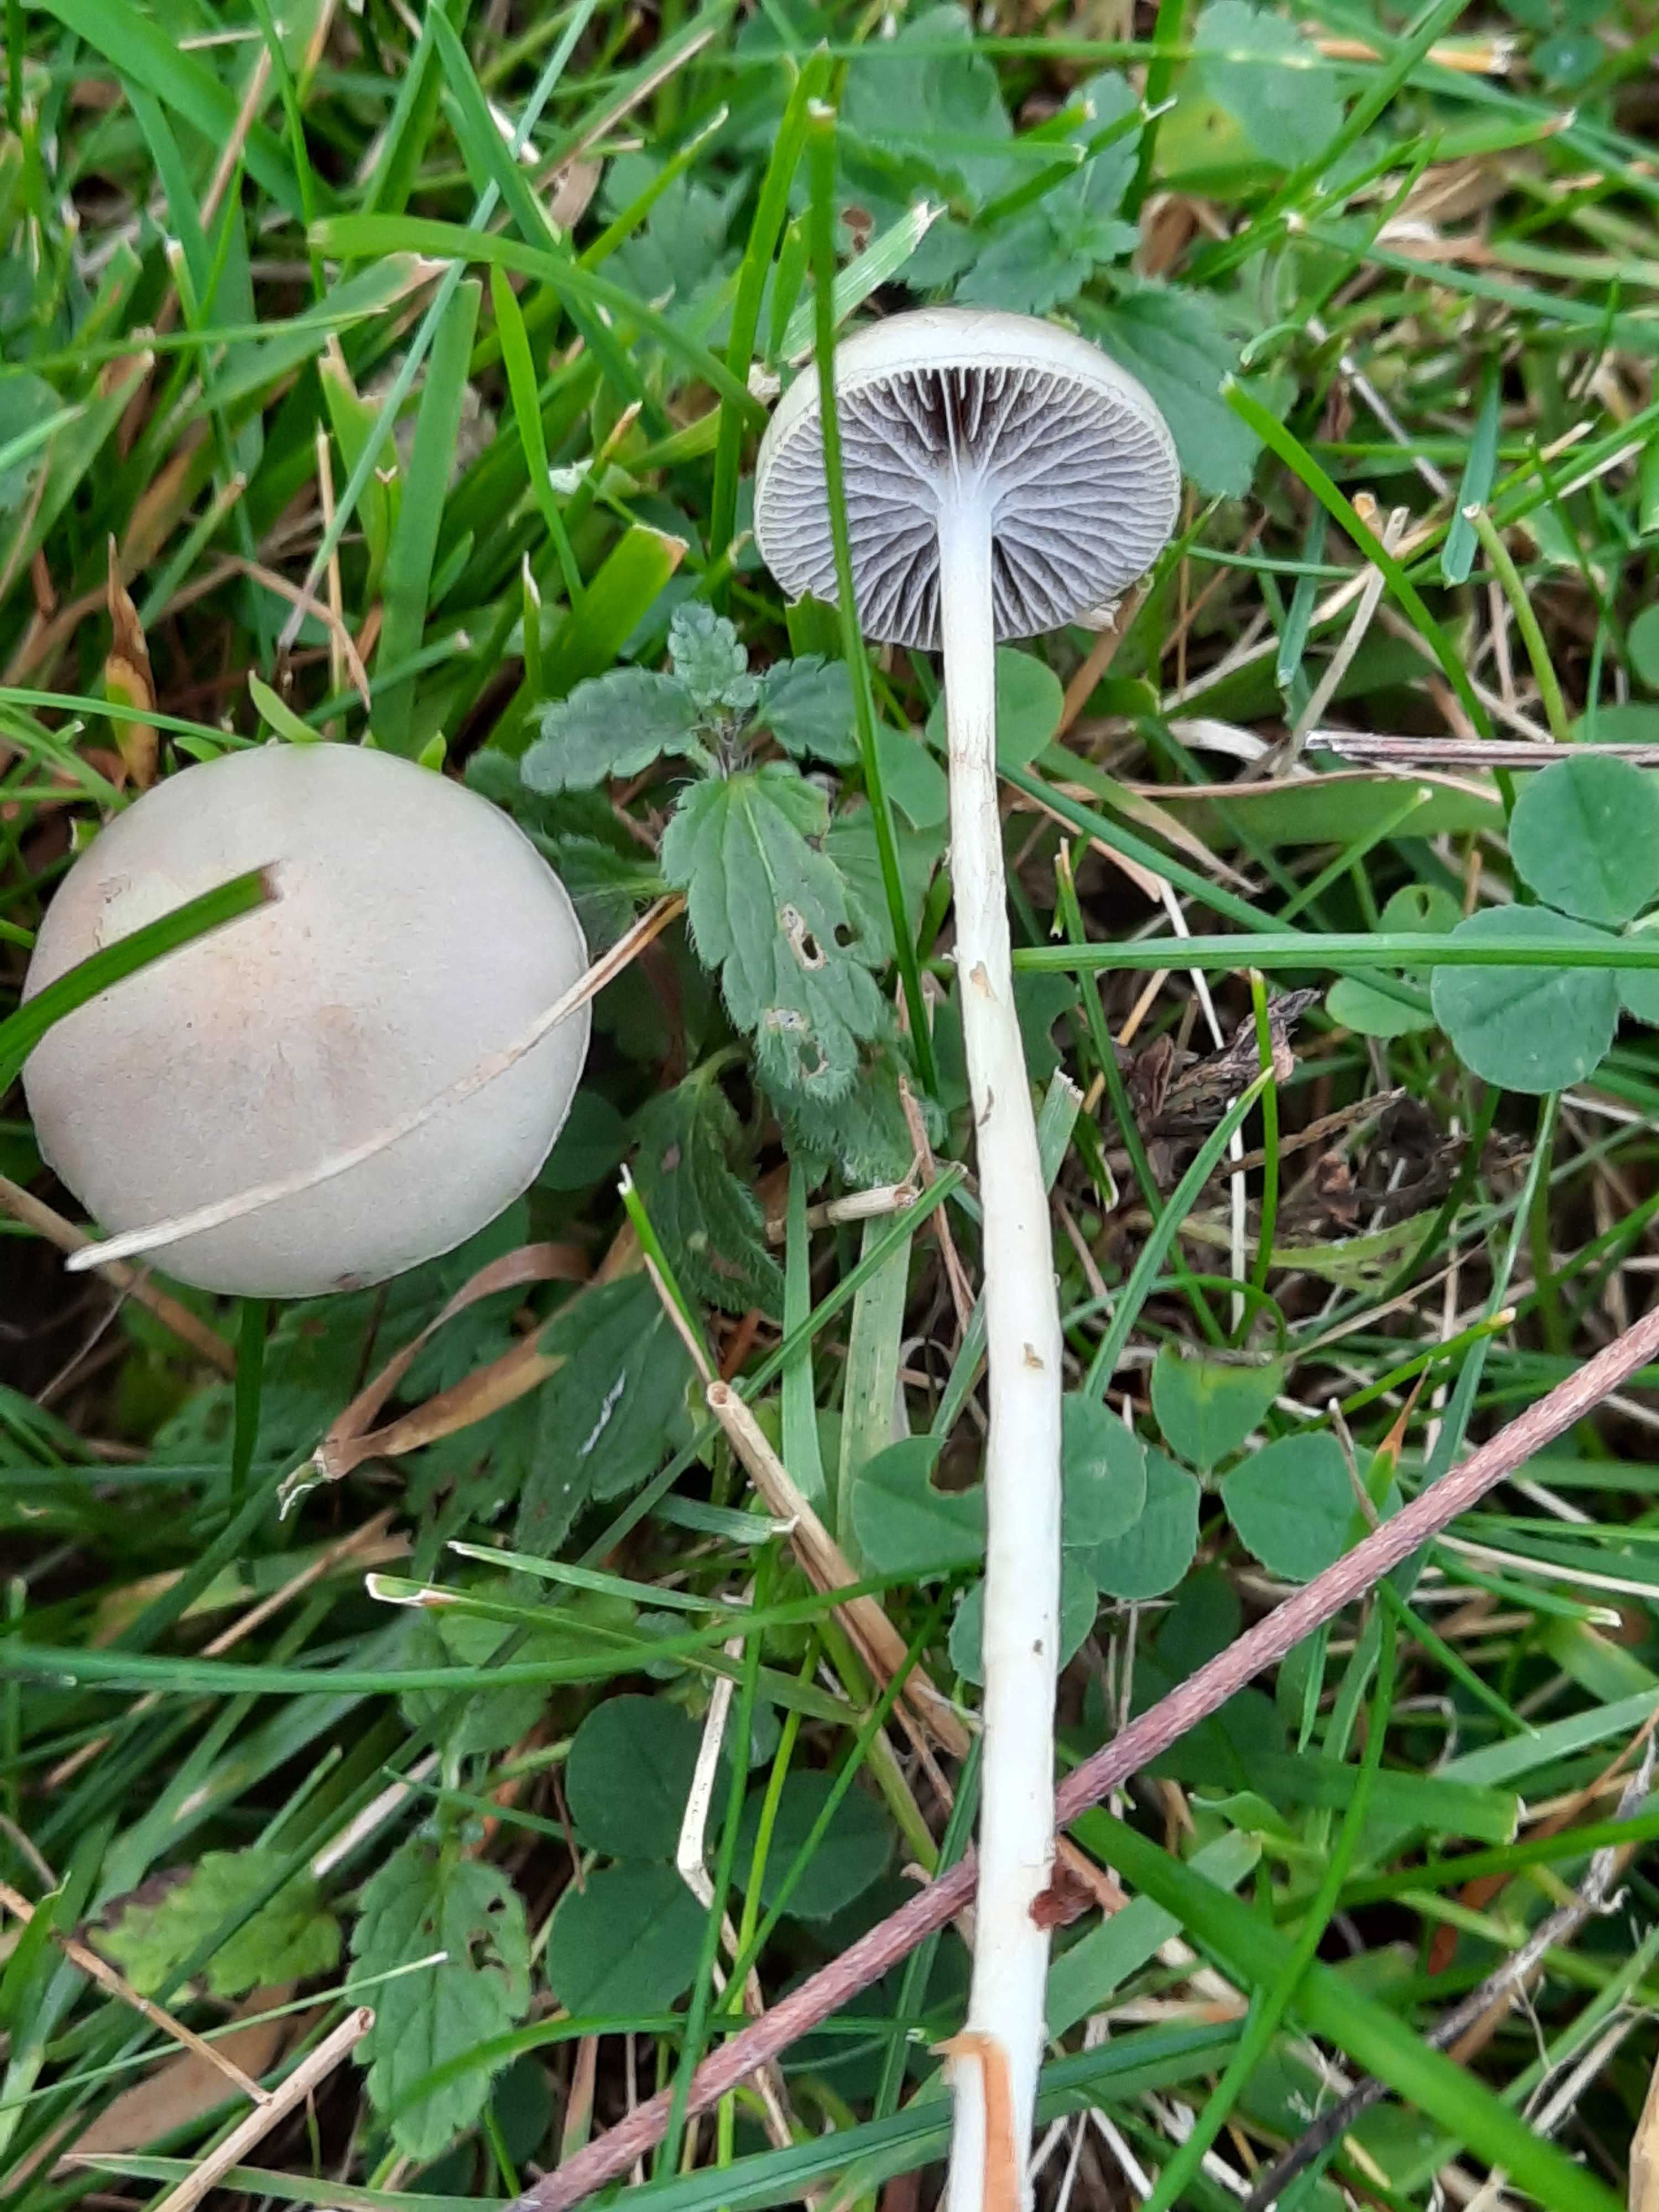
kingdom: Fungi
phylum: Basidiomycota
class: Agaricomycetes
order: Agaricales
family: Strophariaceae
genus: Protostropharia
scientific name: Protostropharia semiglobata
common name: halvkugleformet bredblad
